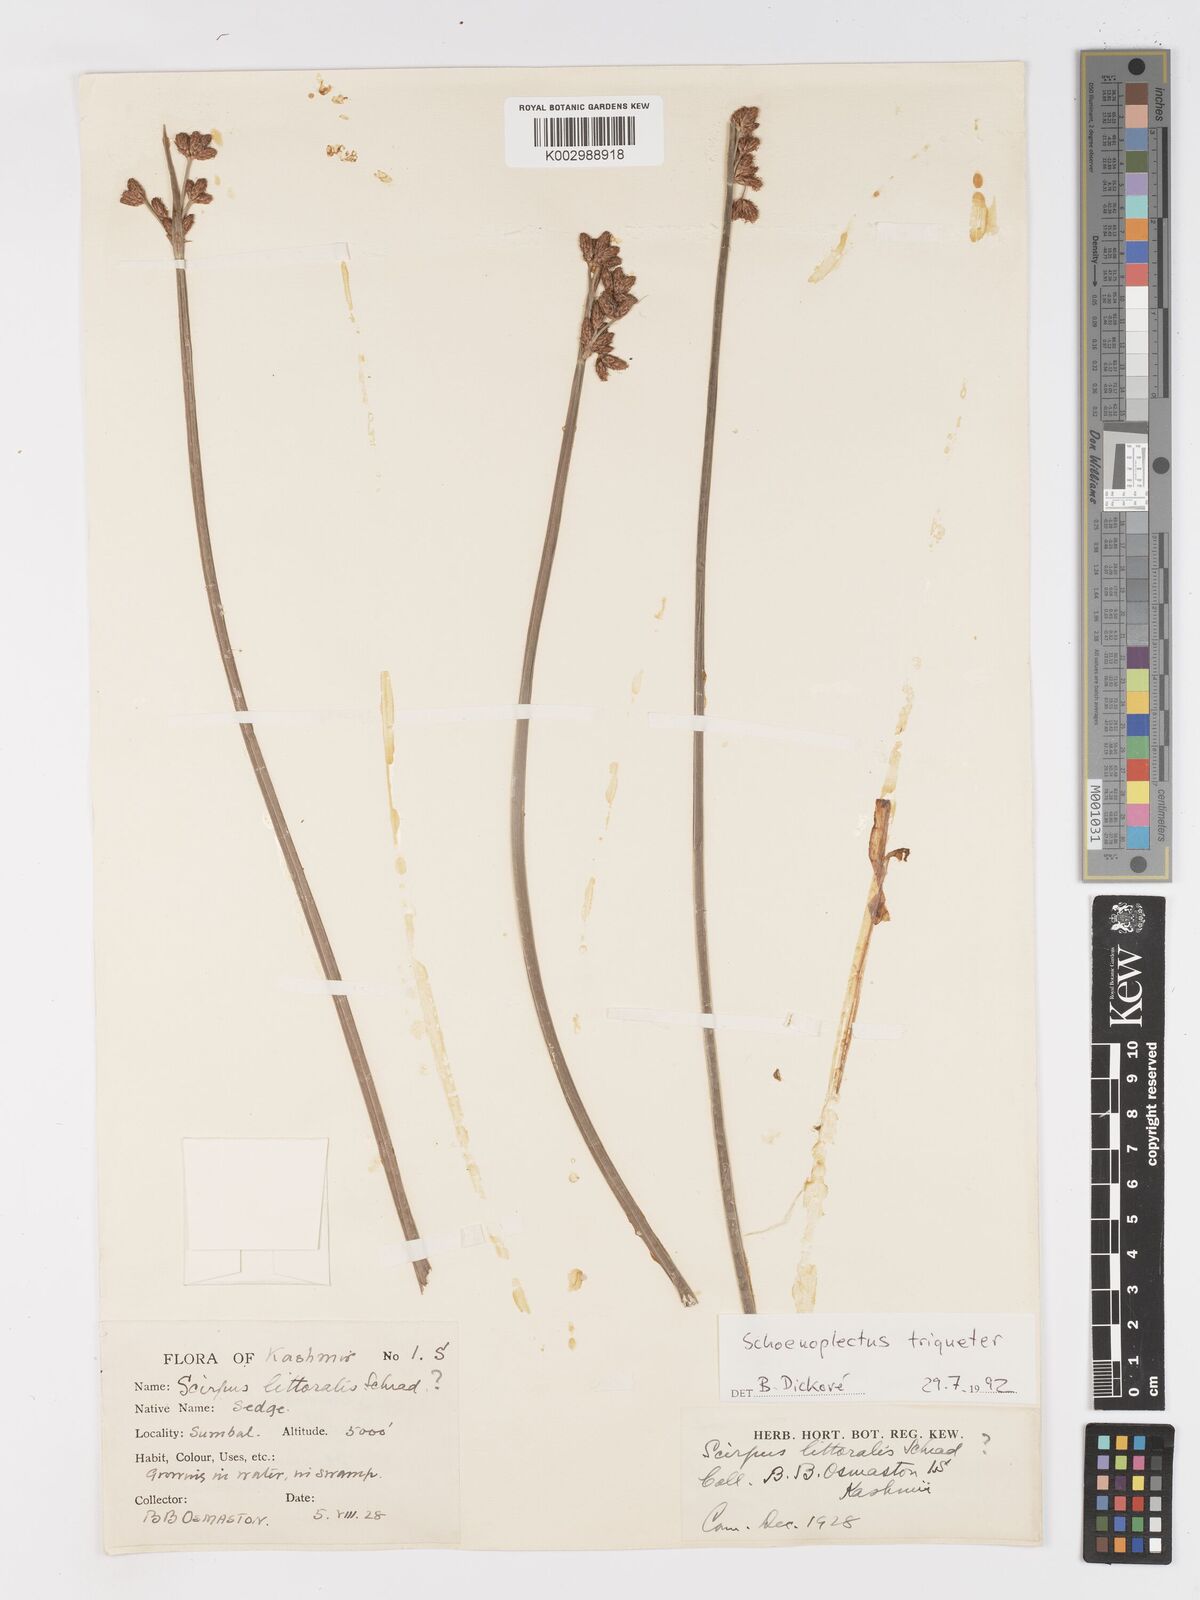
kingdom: Plantae
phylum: Tracheophyta
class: Liliopsida
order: Poales
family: Cyperaceae
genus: Schoenoplectus
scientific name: Schoenoplectus triqueter
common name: Triangular club-rush
